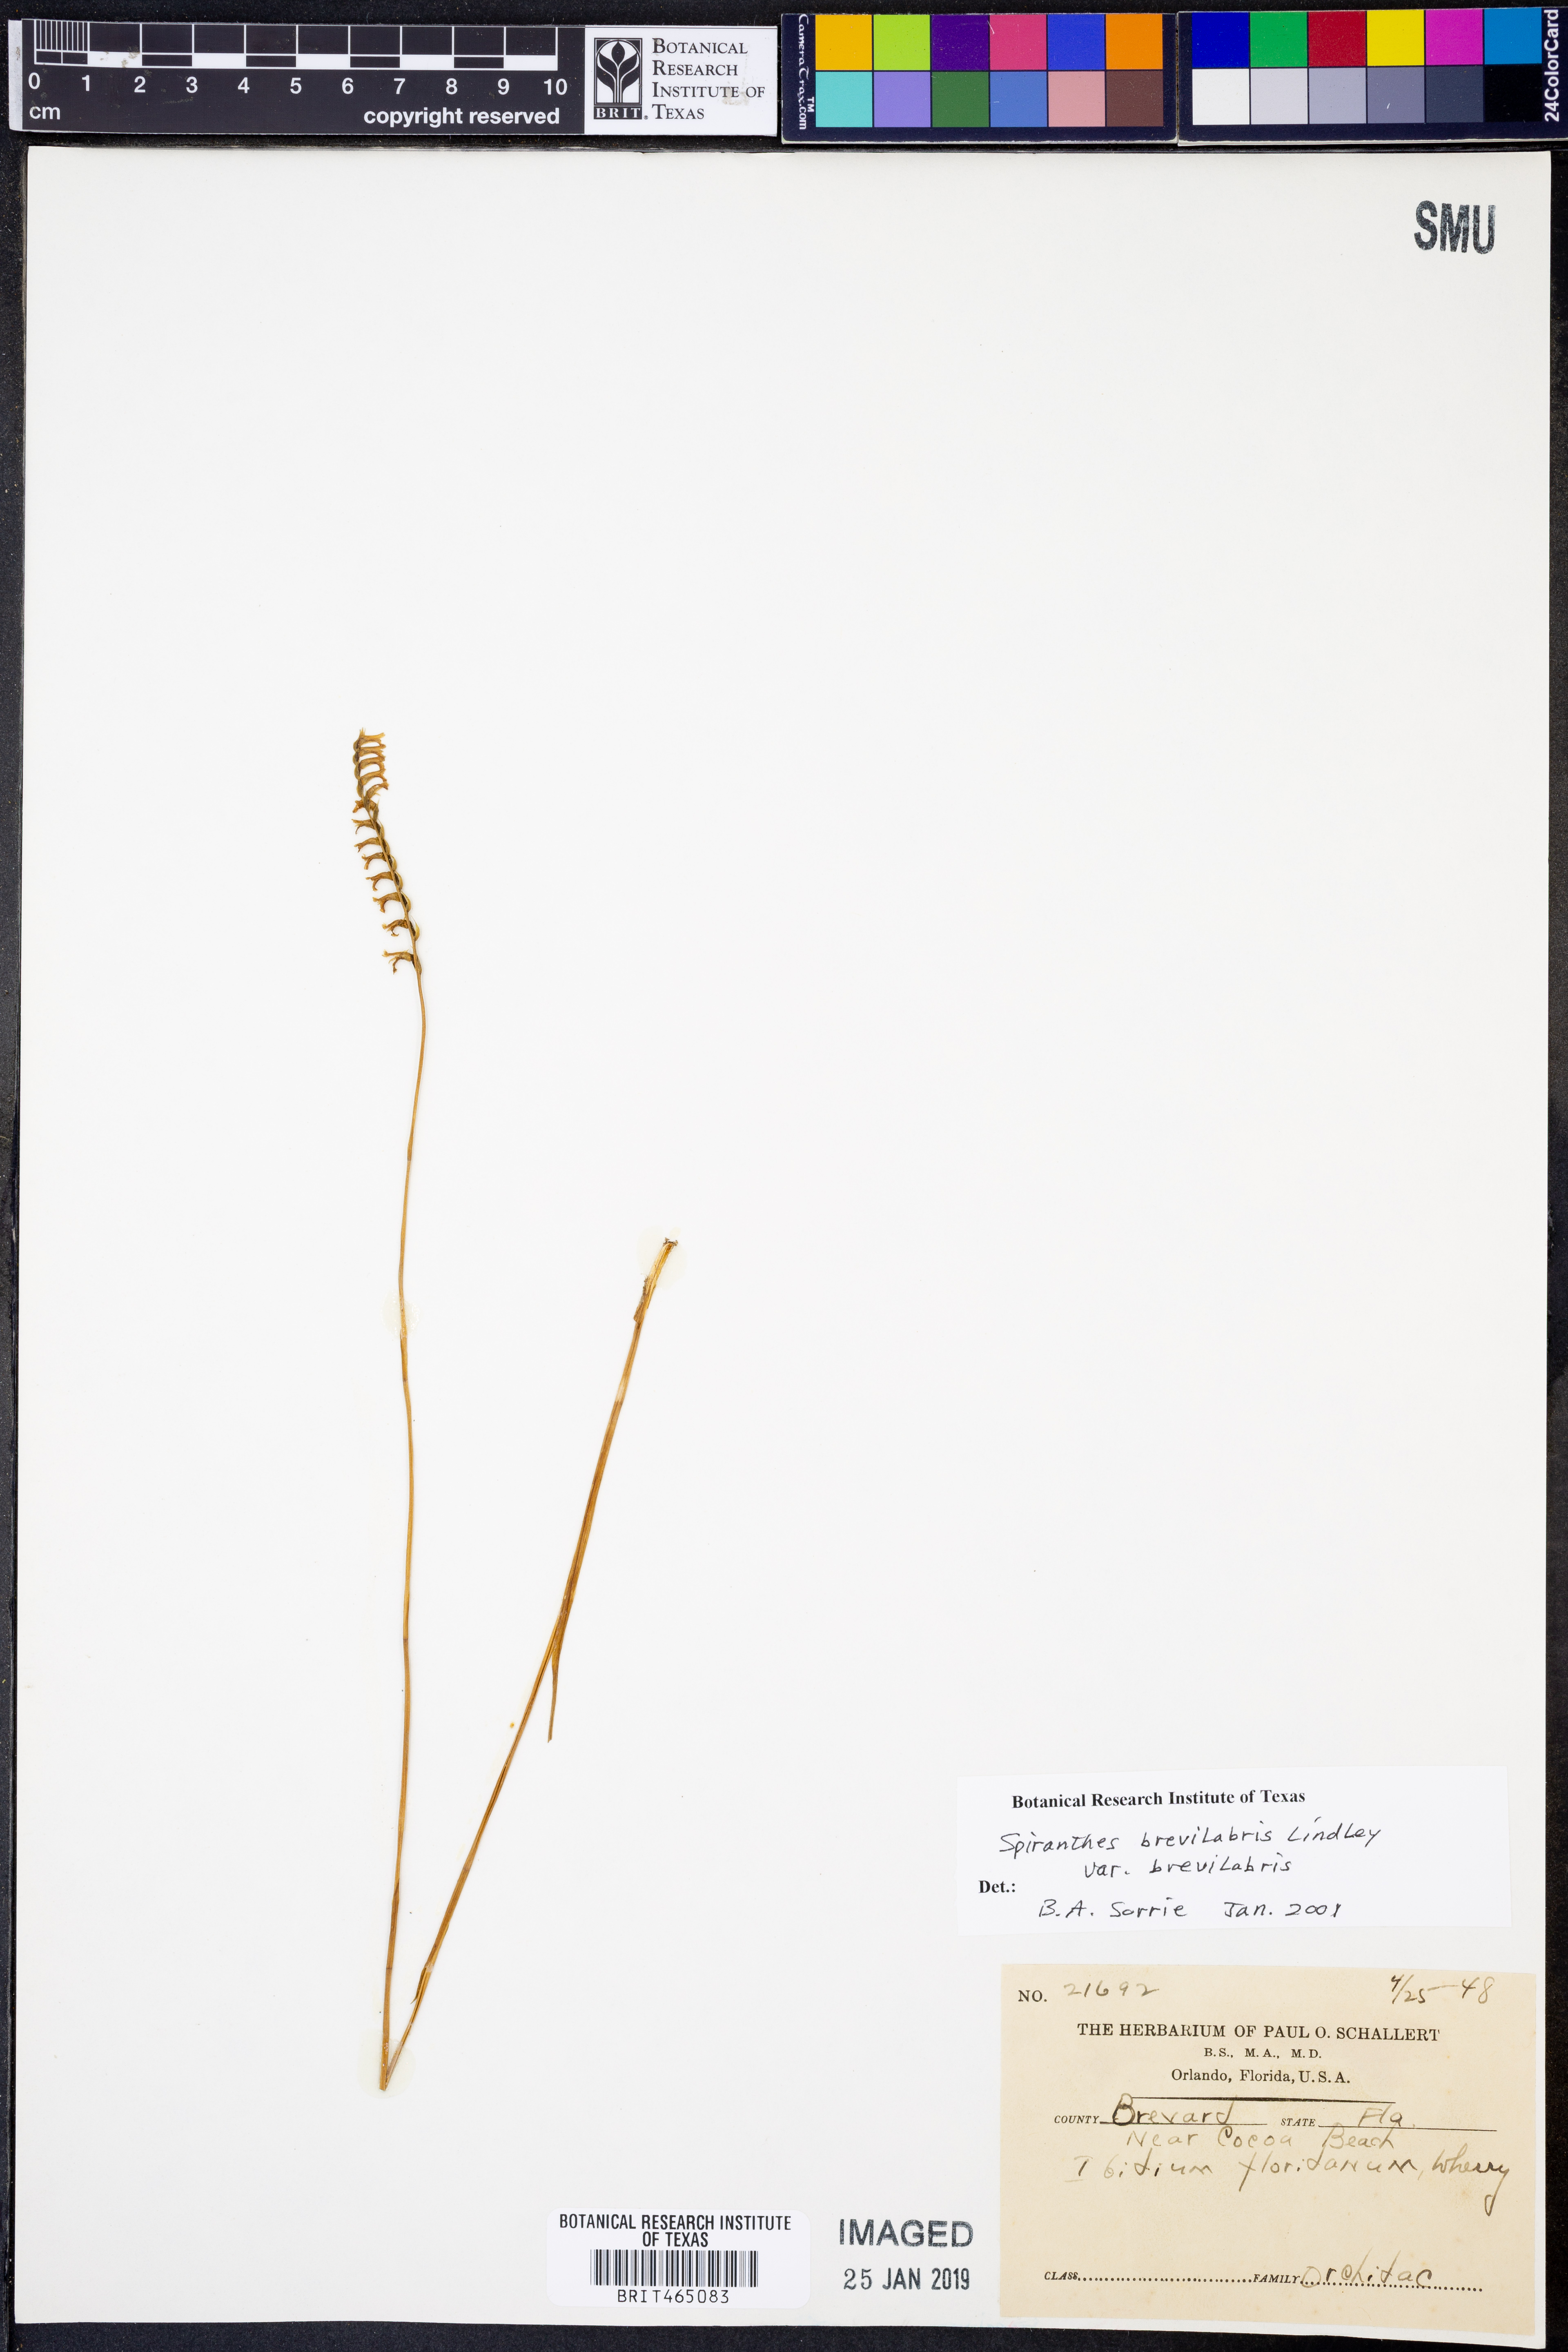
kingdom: Plantae
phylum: Tracheophyta
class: Liliopsida
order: Asparagales
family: Orchidaceae
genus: Spiranthes
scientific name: Spiranthes brevilabris
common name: Texas ladies'-tresses
